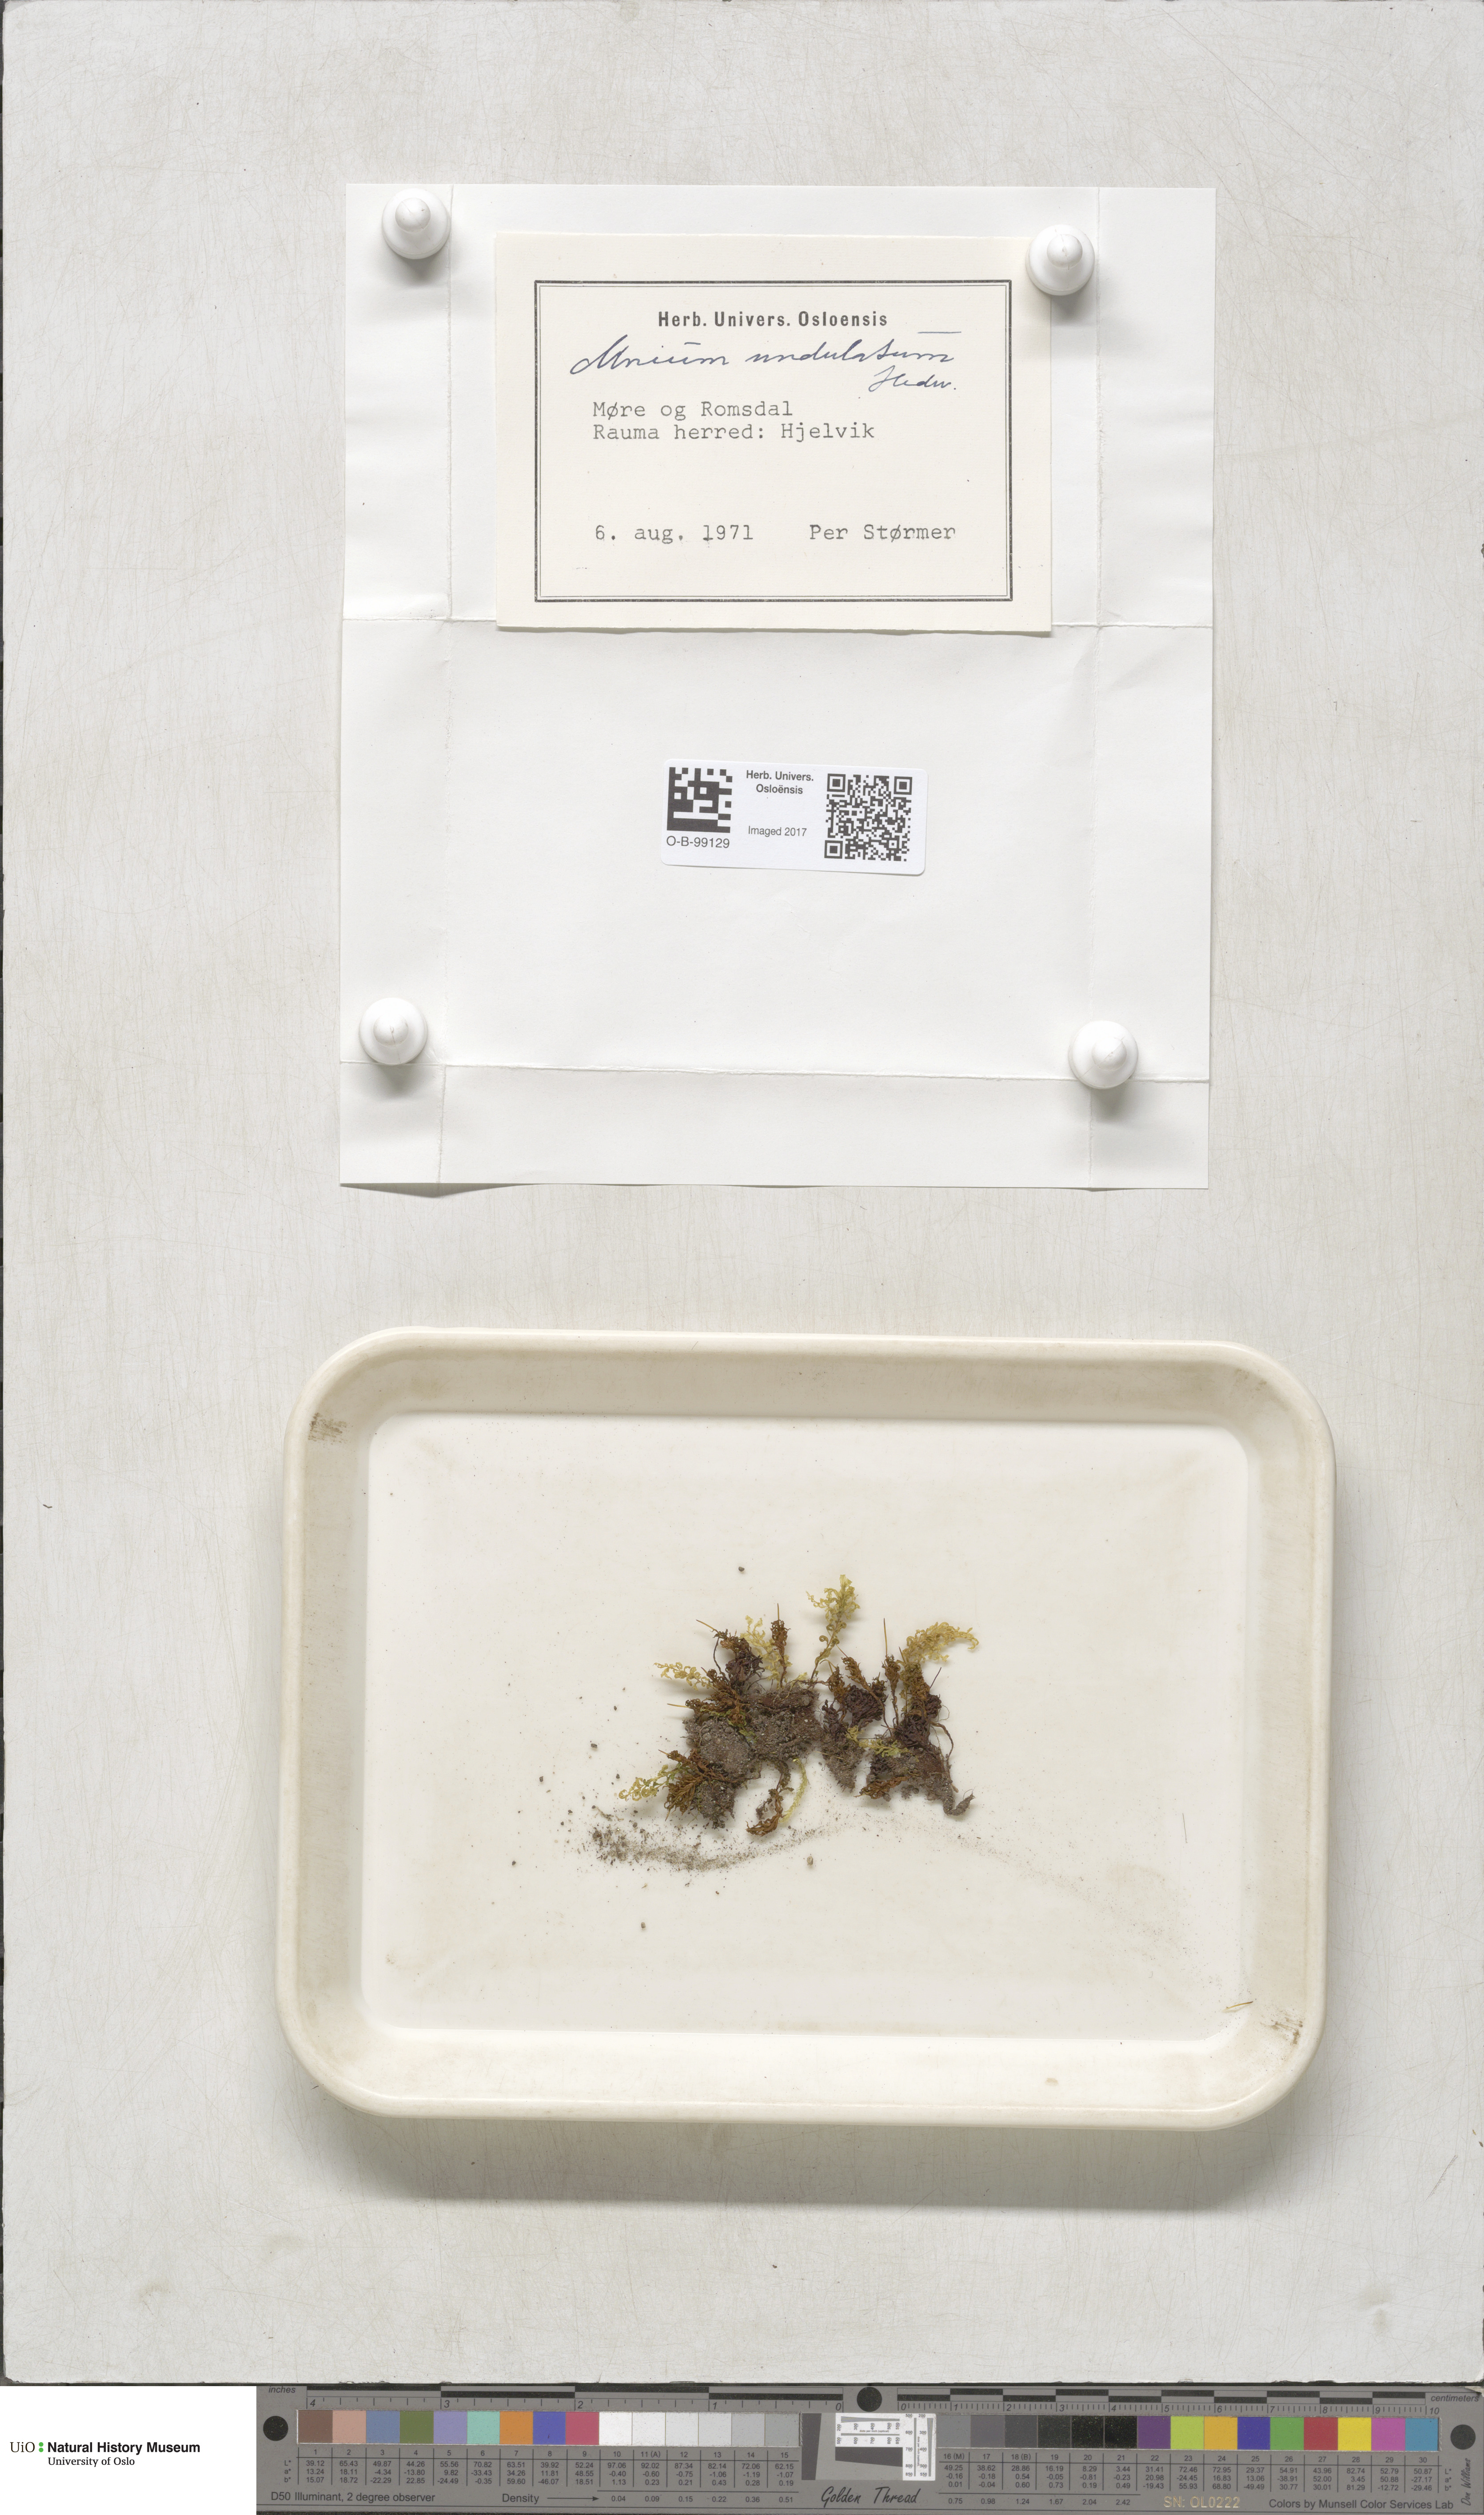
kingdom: Plantae
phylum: Bryophyta
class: Bryopsida
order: Bryales
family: Mniaceae
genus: Plagiomnium
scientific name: Plagiomnium undulatum
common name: Hart's-tongue thyme-moss
